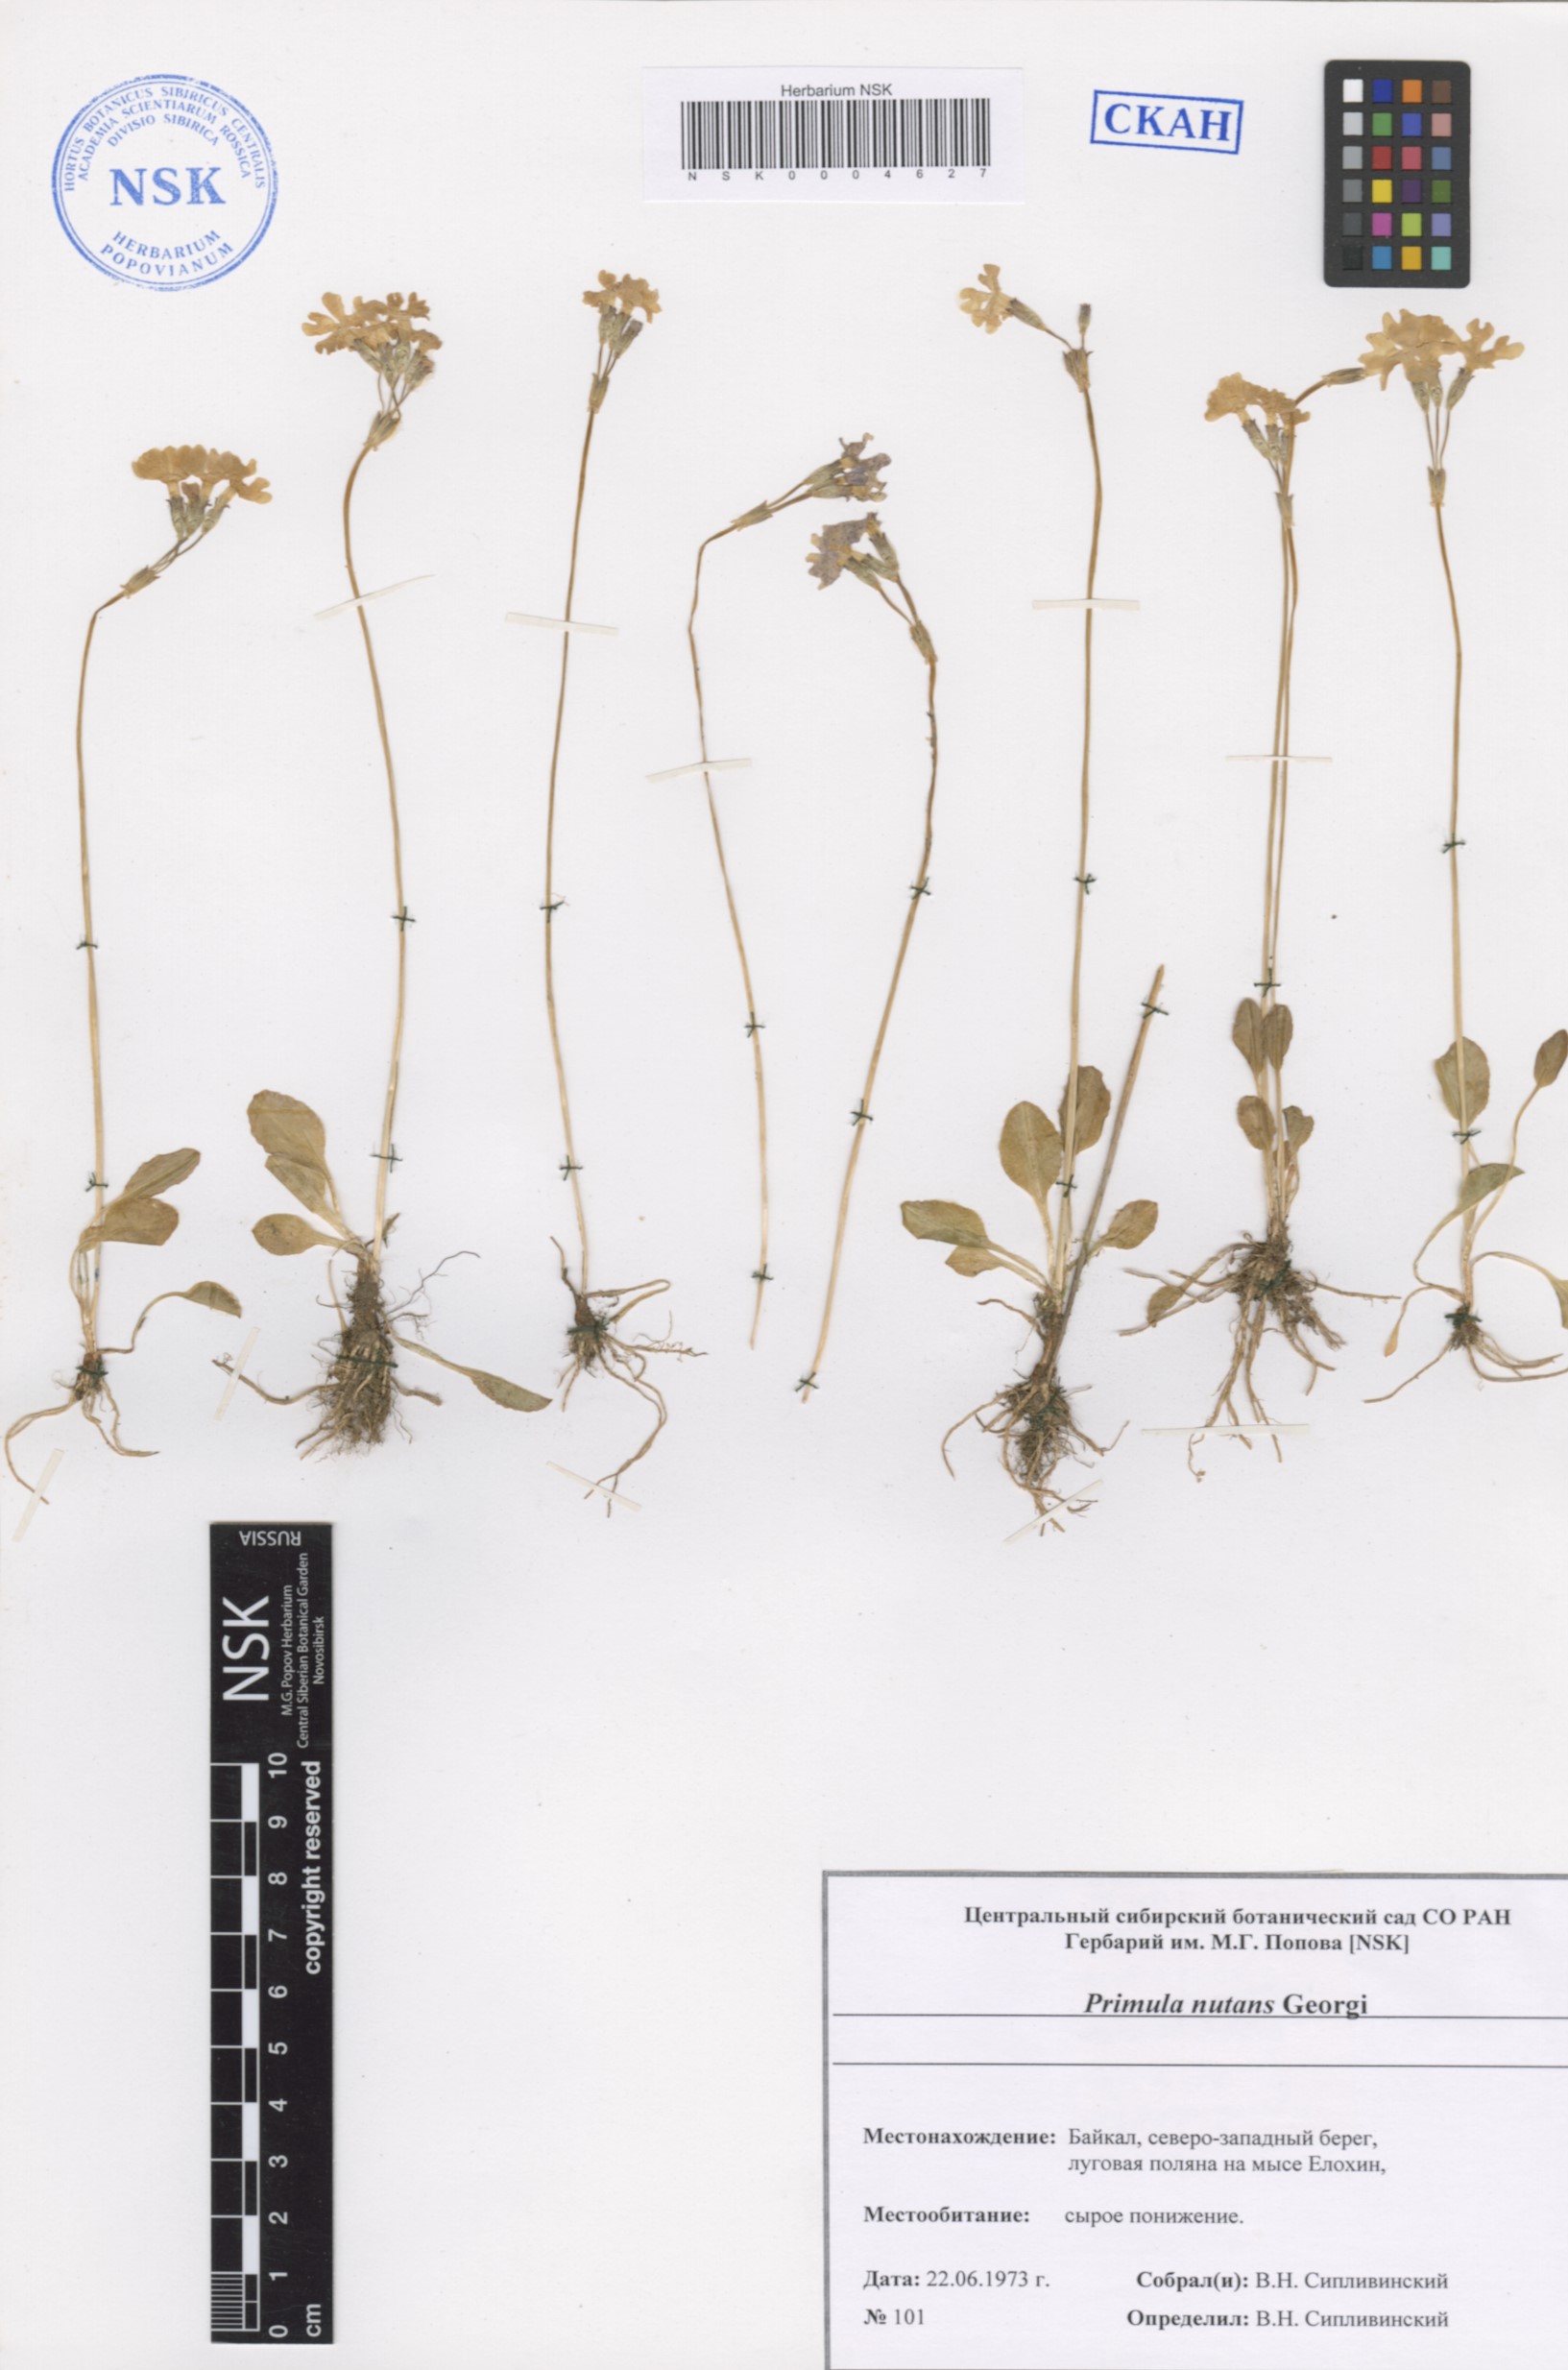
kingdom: Plantae
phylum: Tracheophyta
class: Magnoliopsida
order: Ericales
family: Primulaceae
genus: Primula
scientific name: Primula nutans
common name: Siberian primrose
